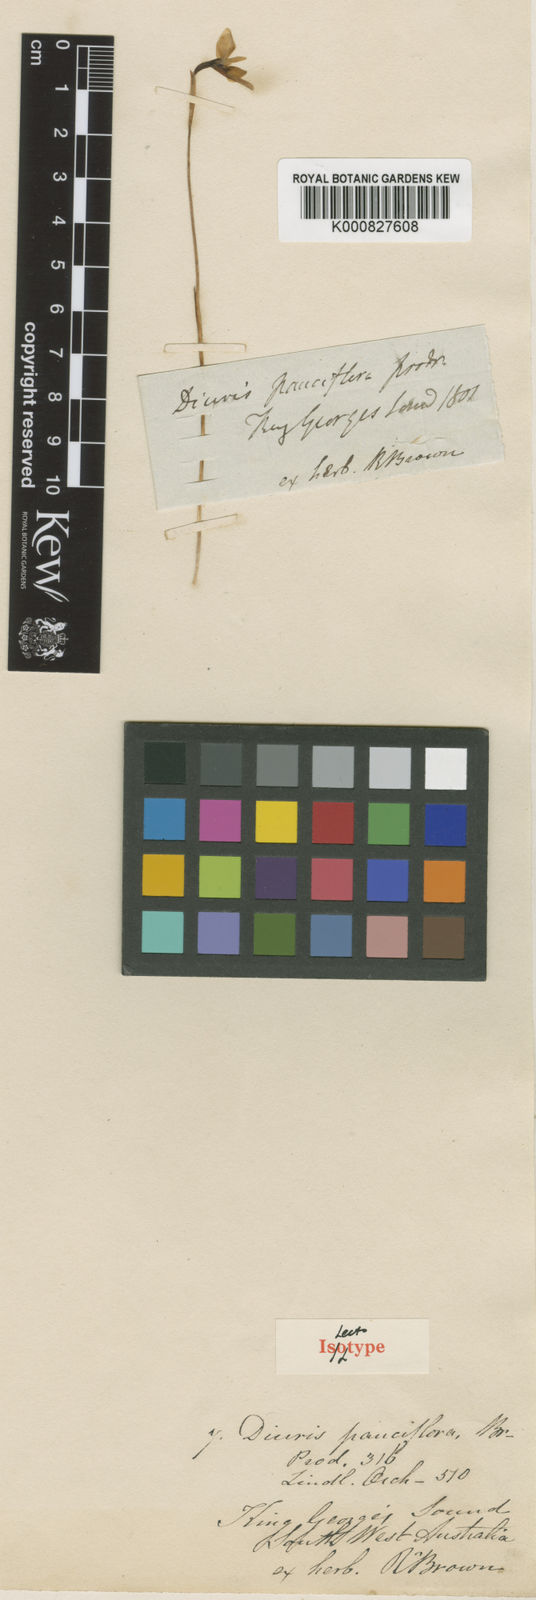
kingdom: Plantae
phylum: Tracheophyta
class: Liliopsida
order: Asparagales
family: Orchidaceae
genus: Diuris
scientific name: Diuris emarginata
